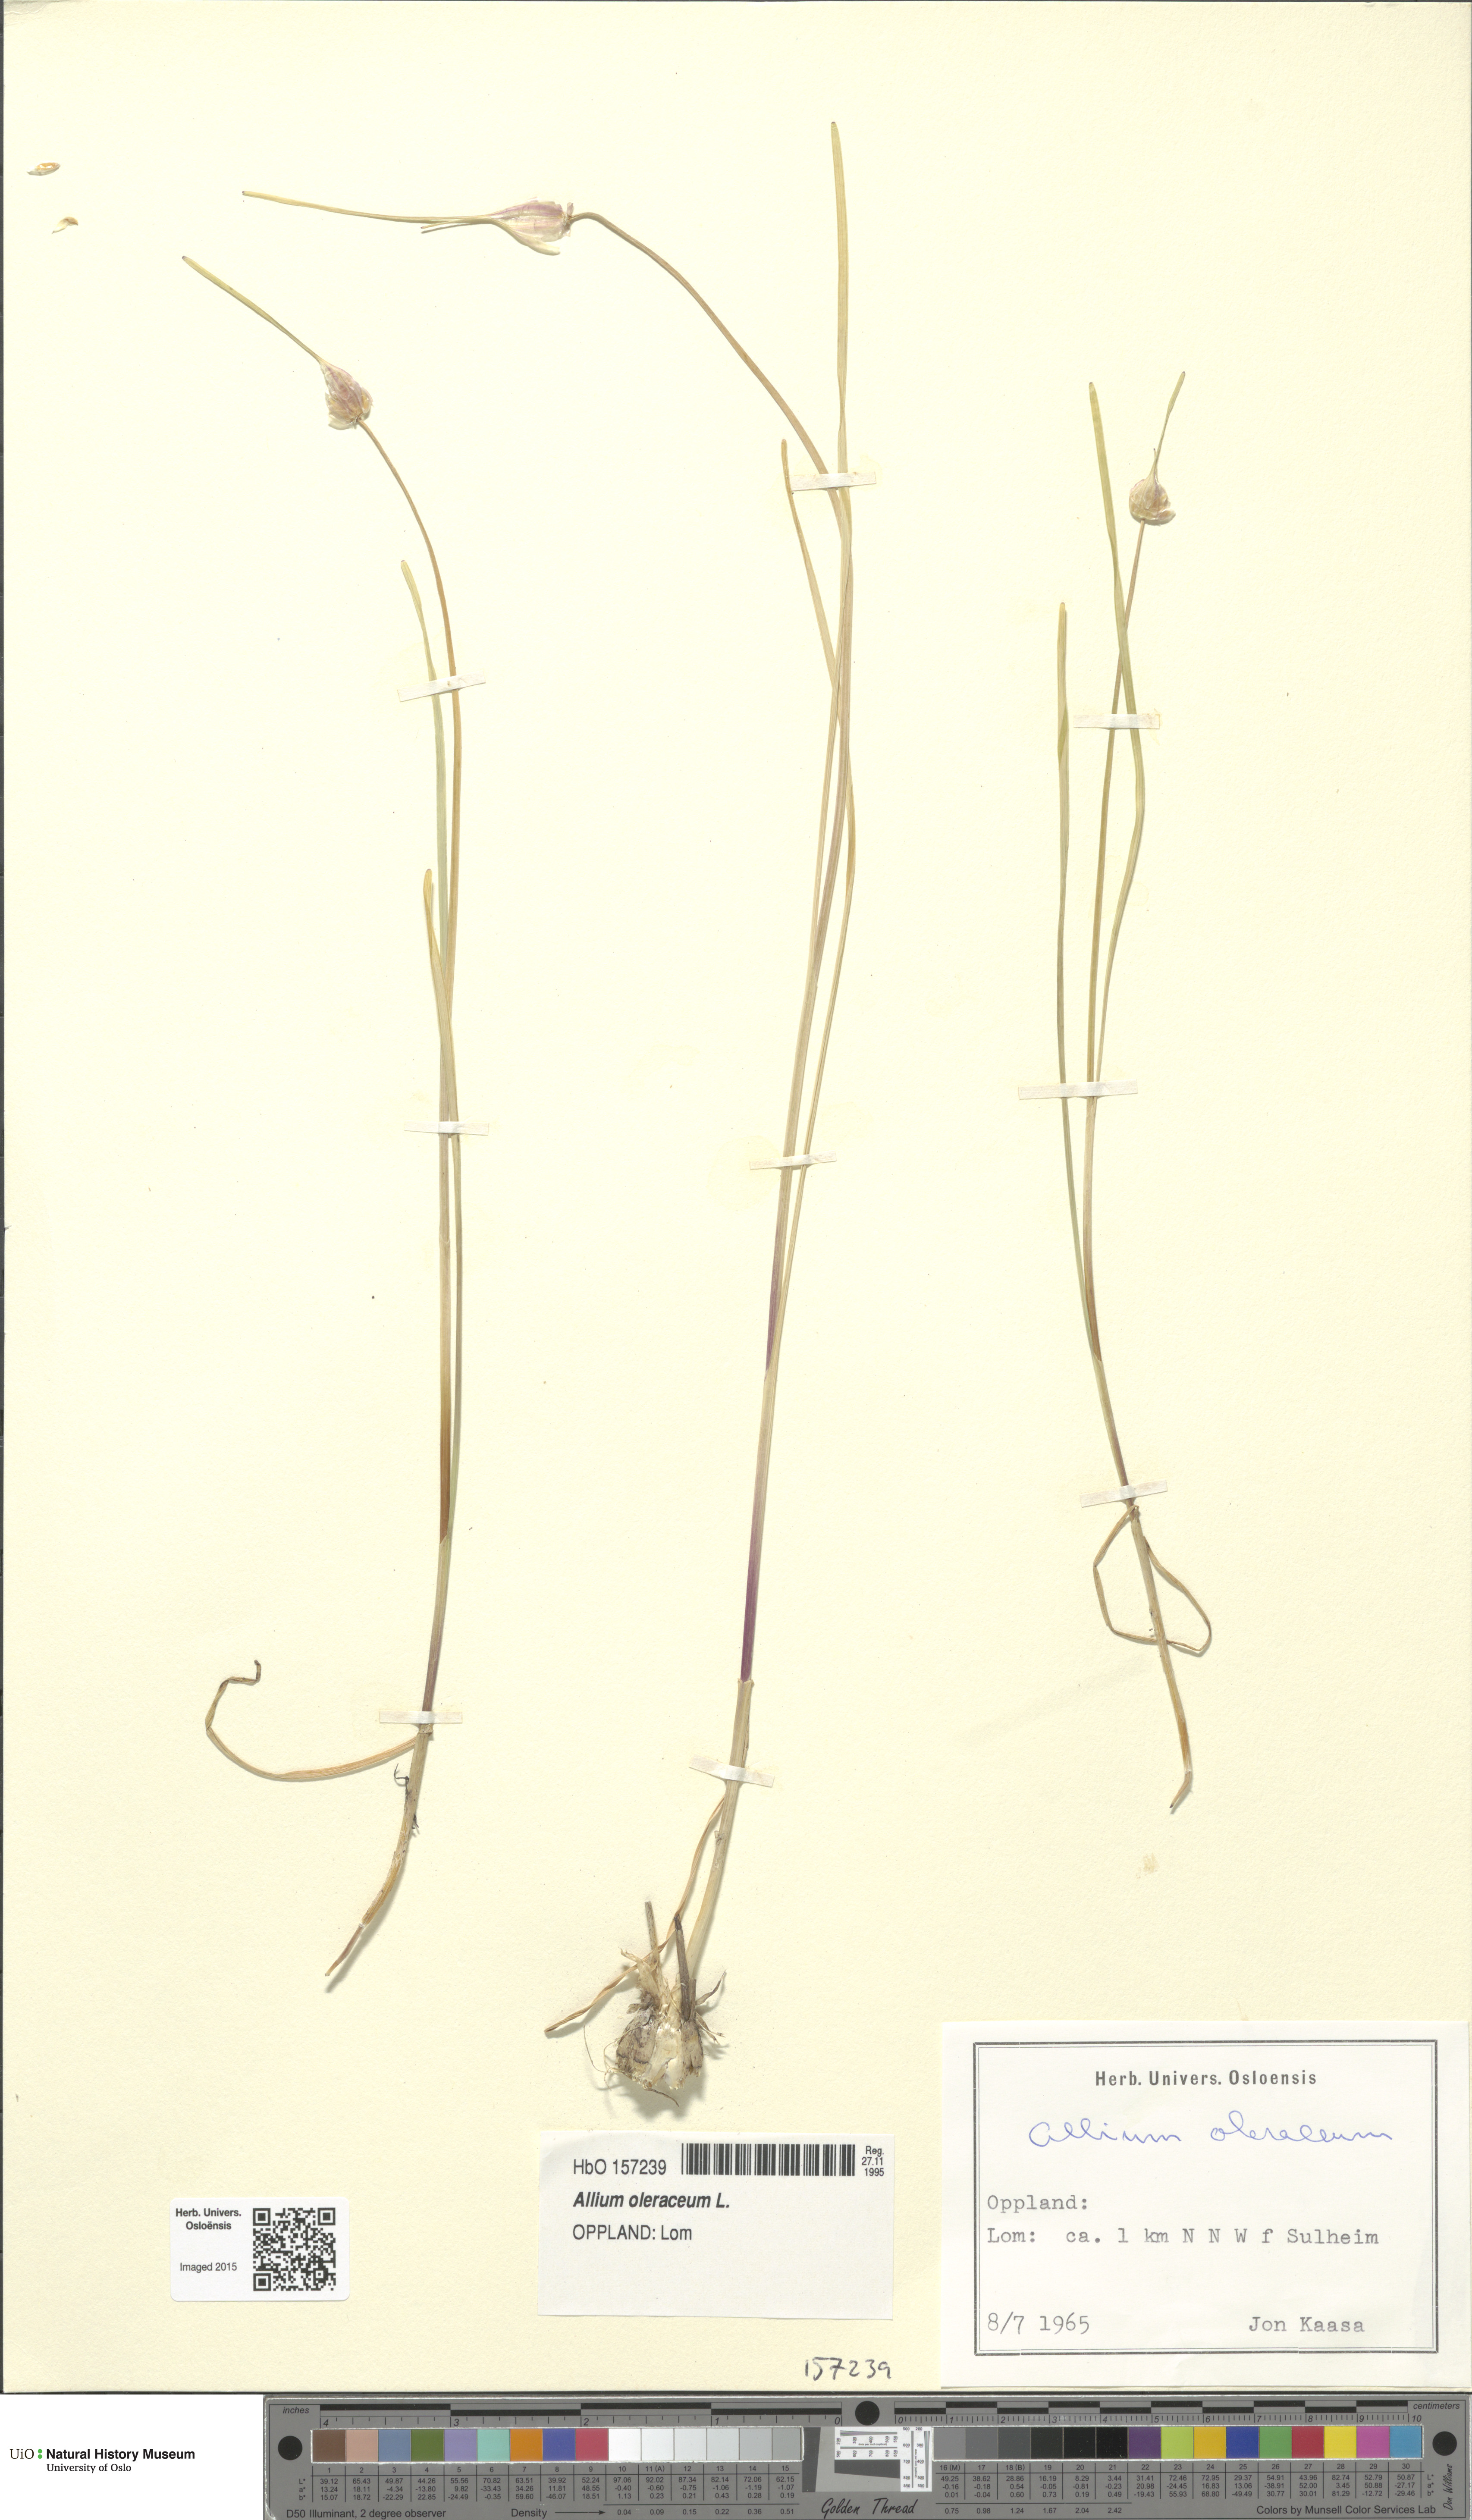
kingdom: Plantae
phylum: Tracheophyta
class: Liliopsida
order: Asparagales
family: Amaryllidaceae
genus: Allium
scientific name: Allium oleraceum
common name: Field garlic
